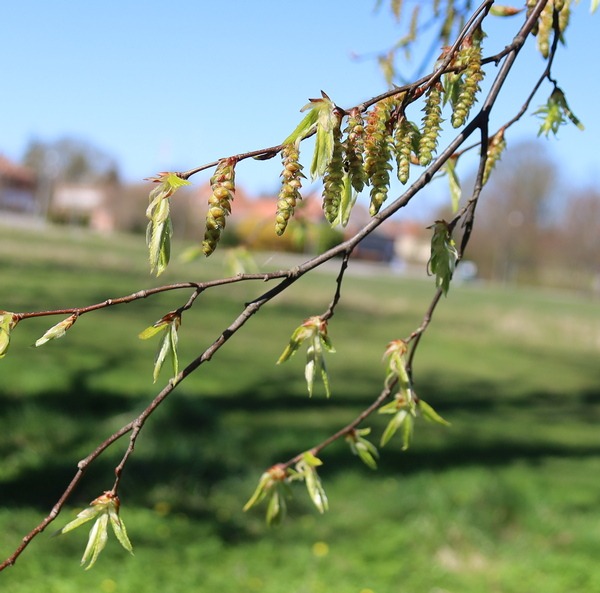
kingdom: Plantae
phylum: Tracheophyta
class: Magnoliopsida
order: Fagales
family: Betulaceae
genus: Carpinus
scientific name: Carpinus betulus
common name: Avnbøg
